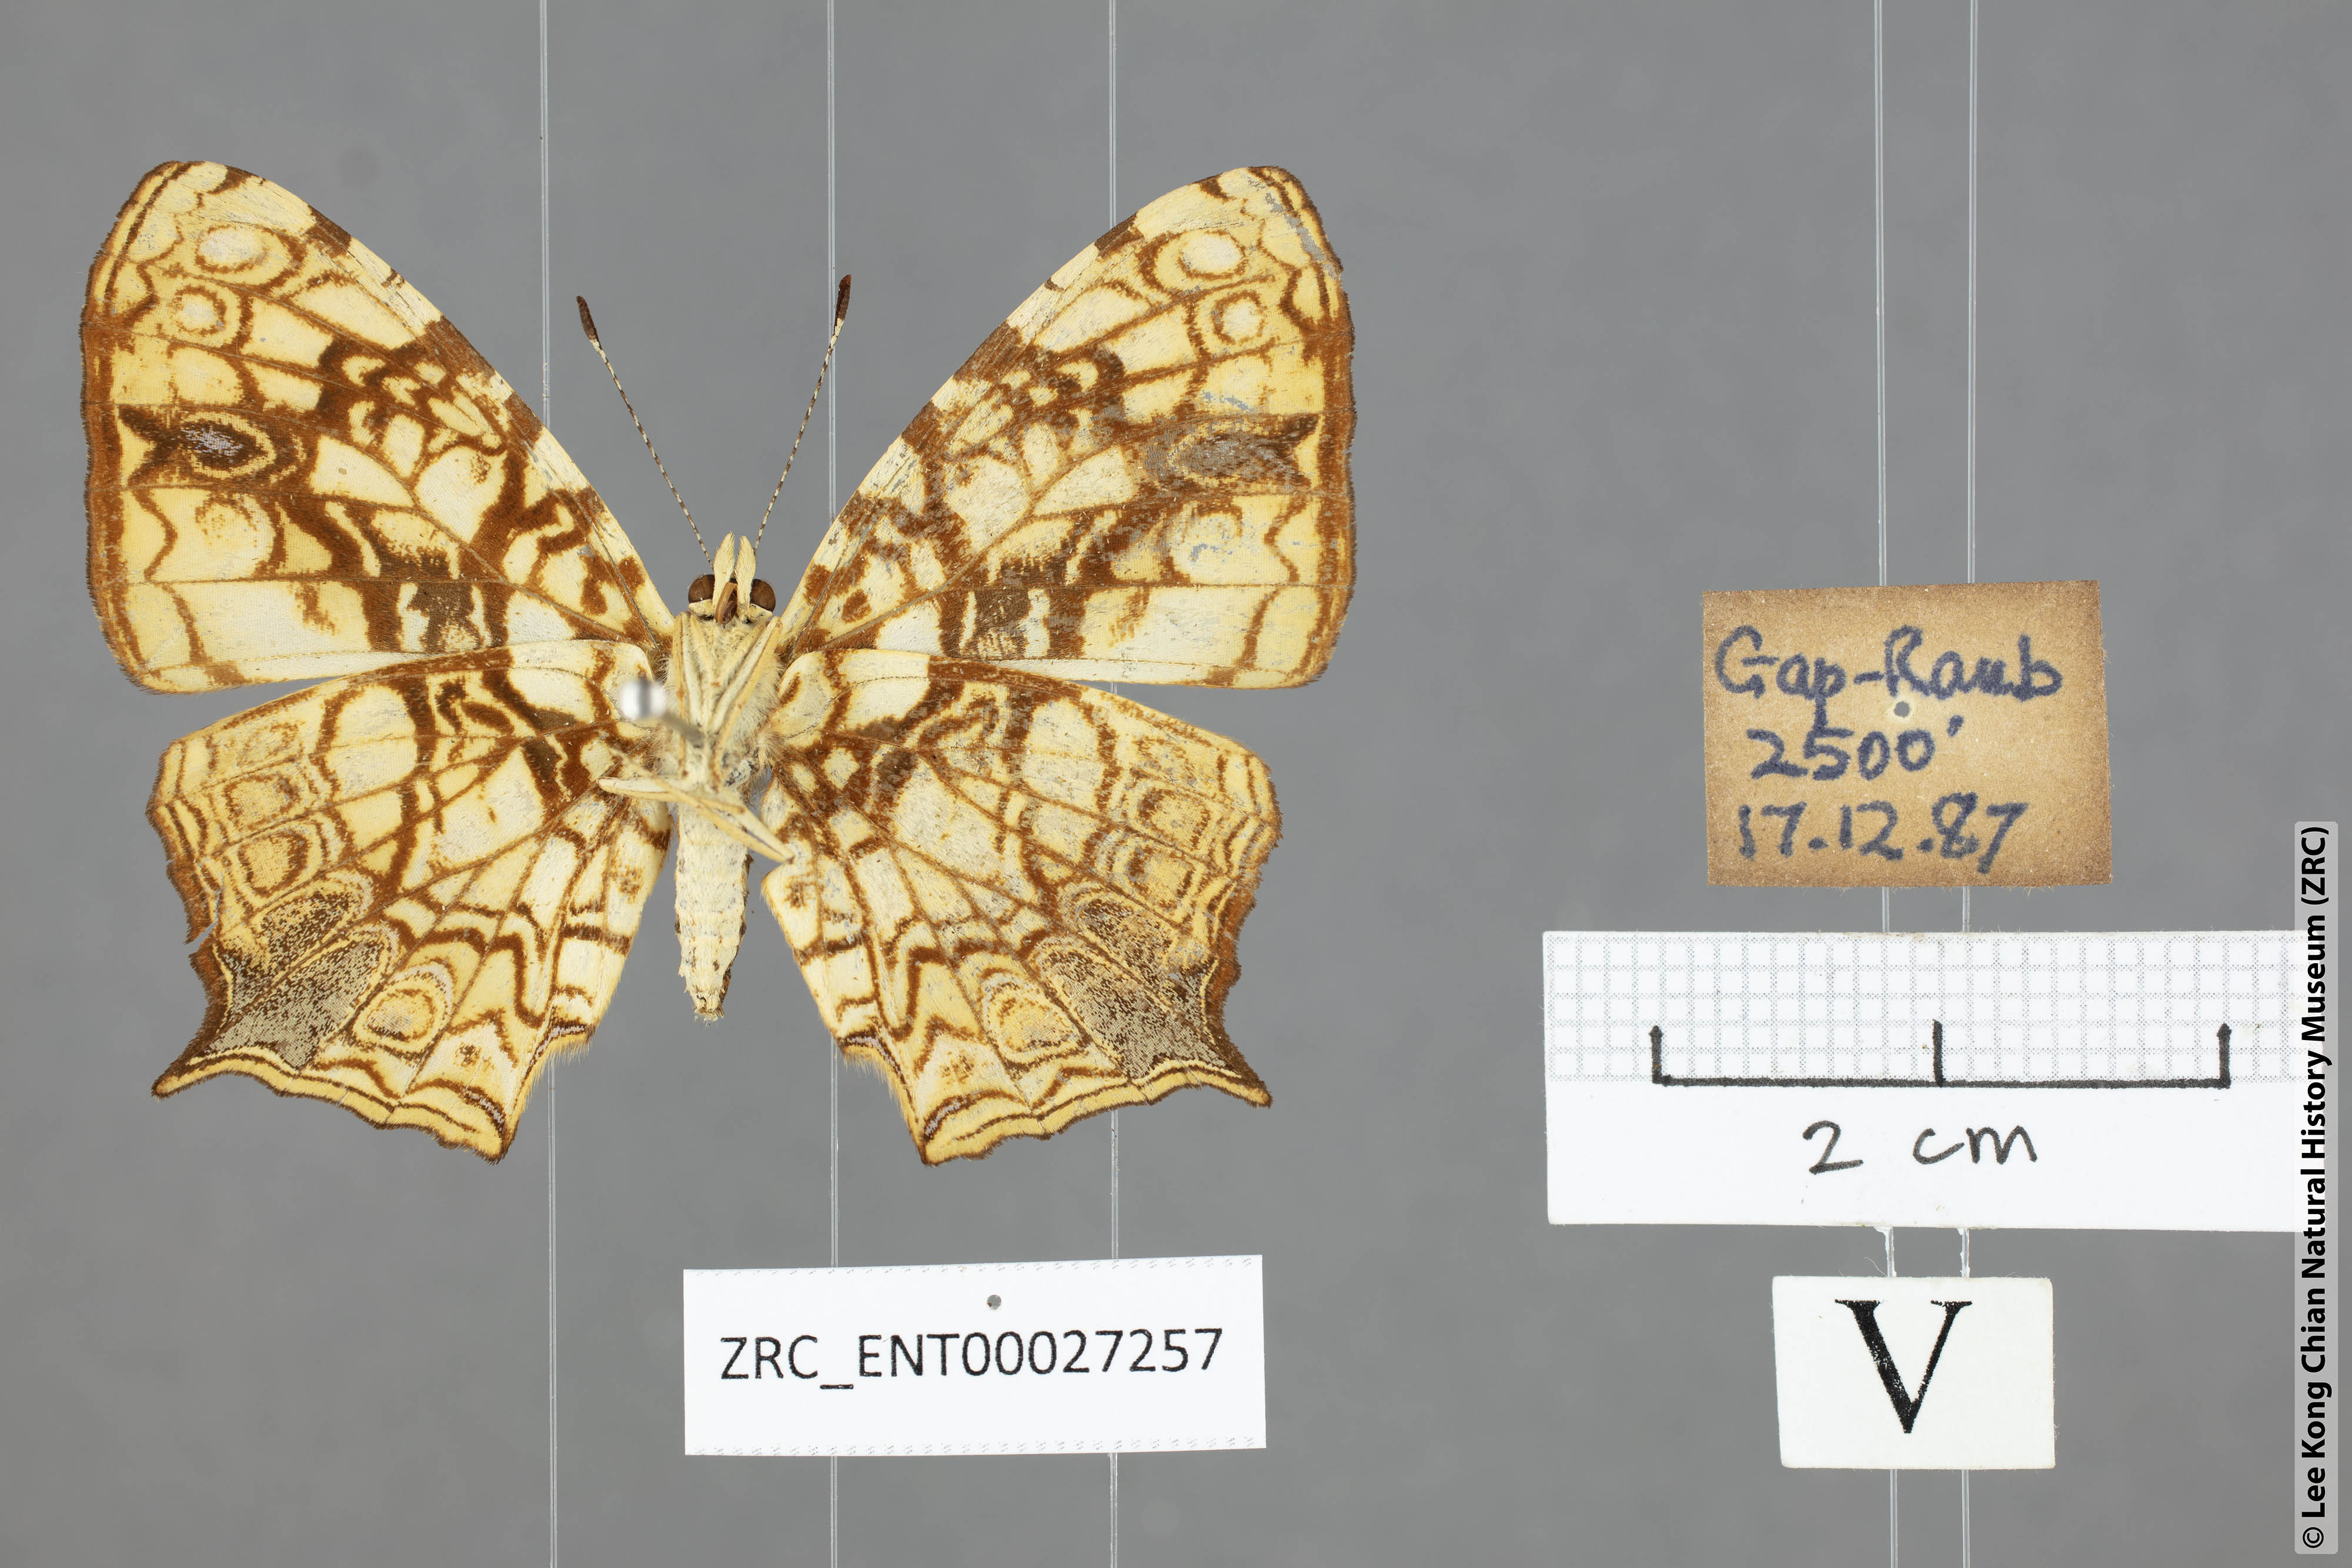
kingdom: Animalia
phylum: Arthropoda
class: Insecta
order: Lepidoptera
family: Nymphalidae
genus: Symbrenthia
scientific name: Symbrenthia hypatia
